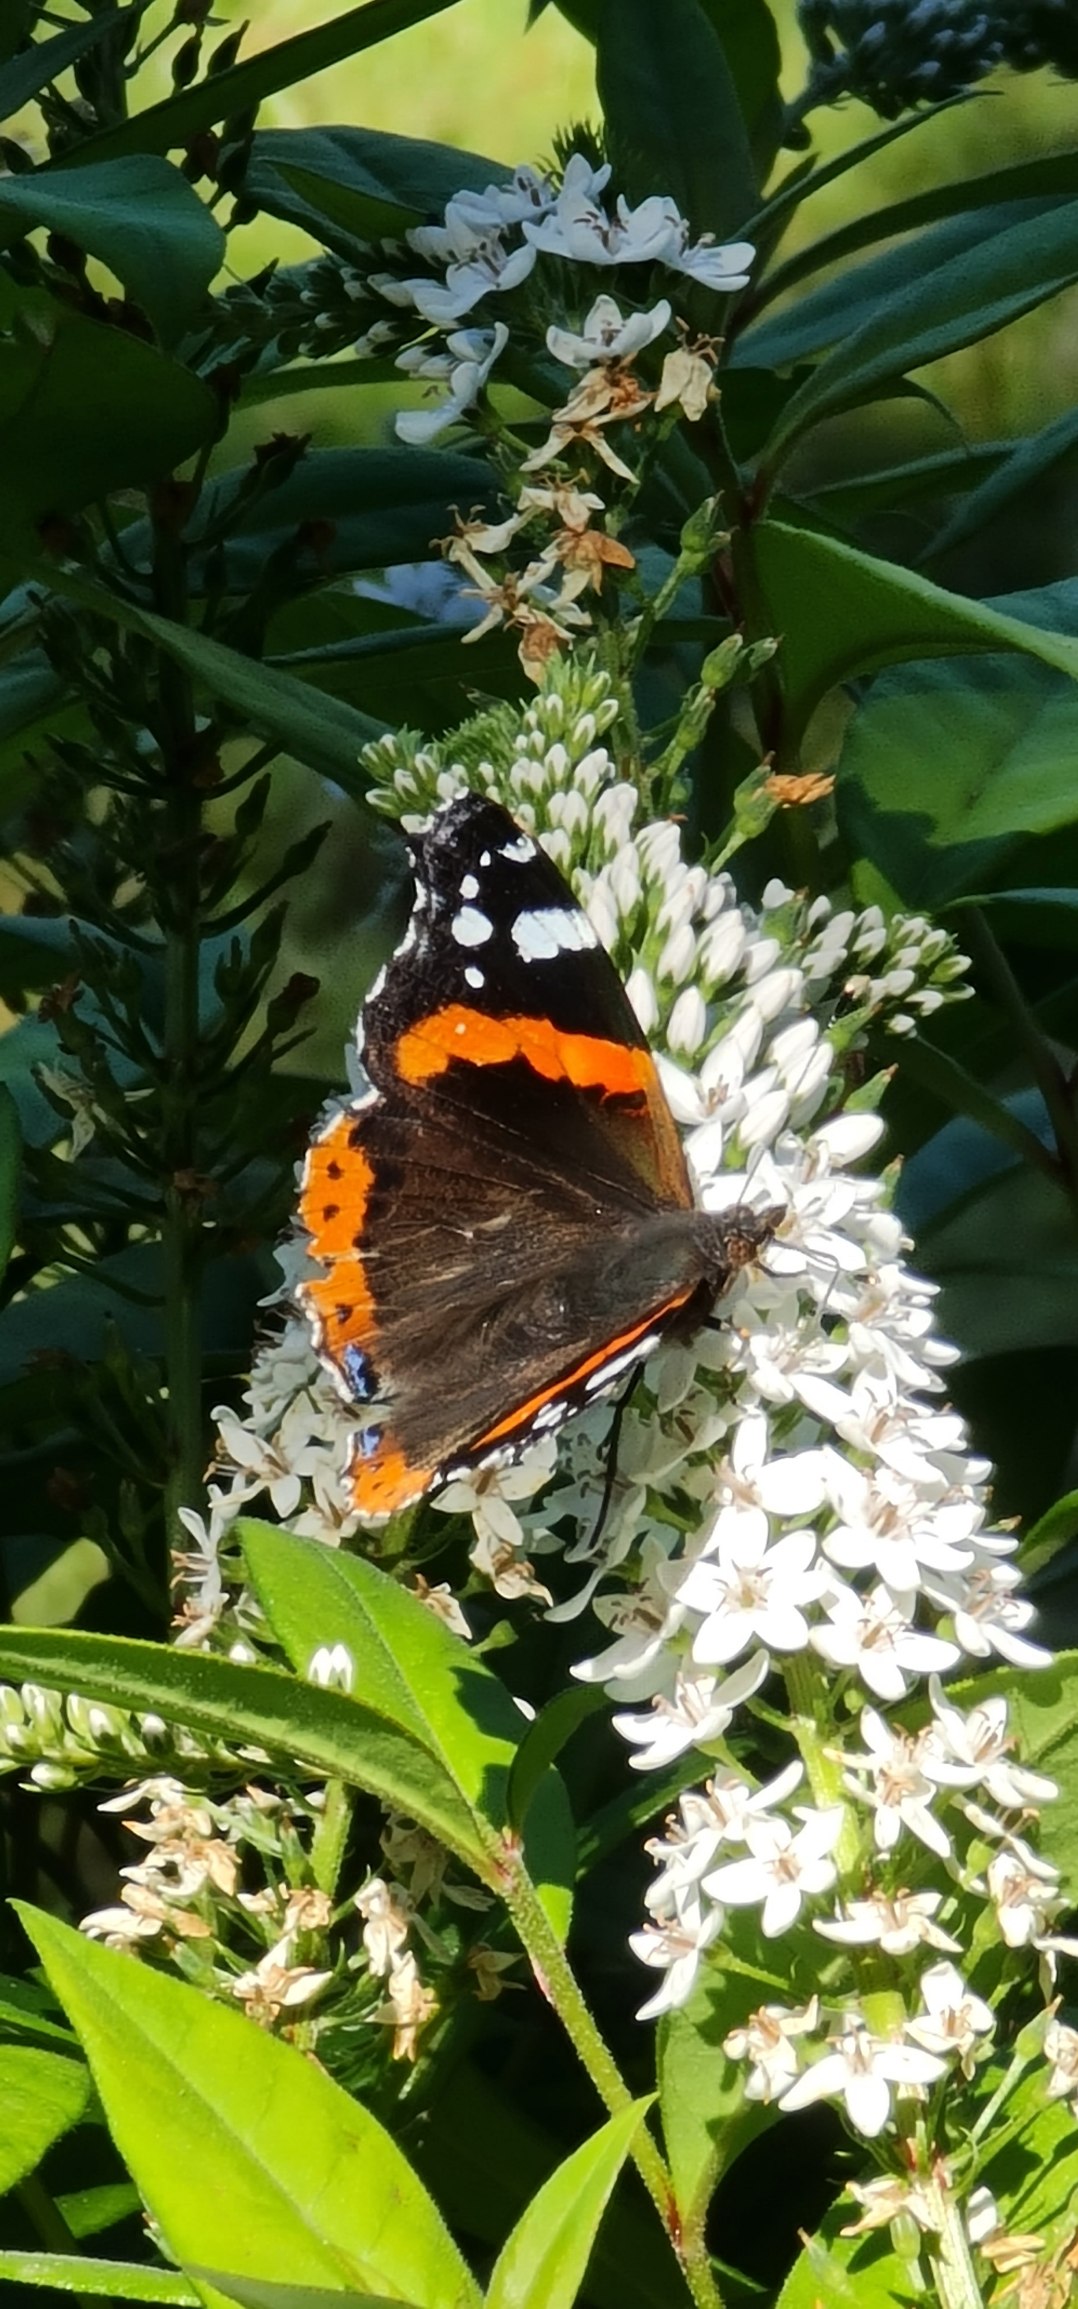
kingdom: Animalia
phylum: Arthropoda
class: Insecta
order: Lepidoptera
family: Nymphalidae
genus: Vanessa
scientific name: Vanessa atalanta
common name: Admiral
